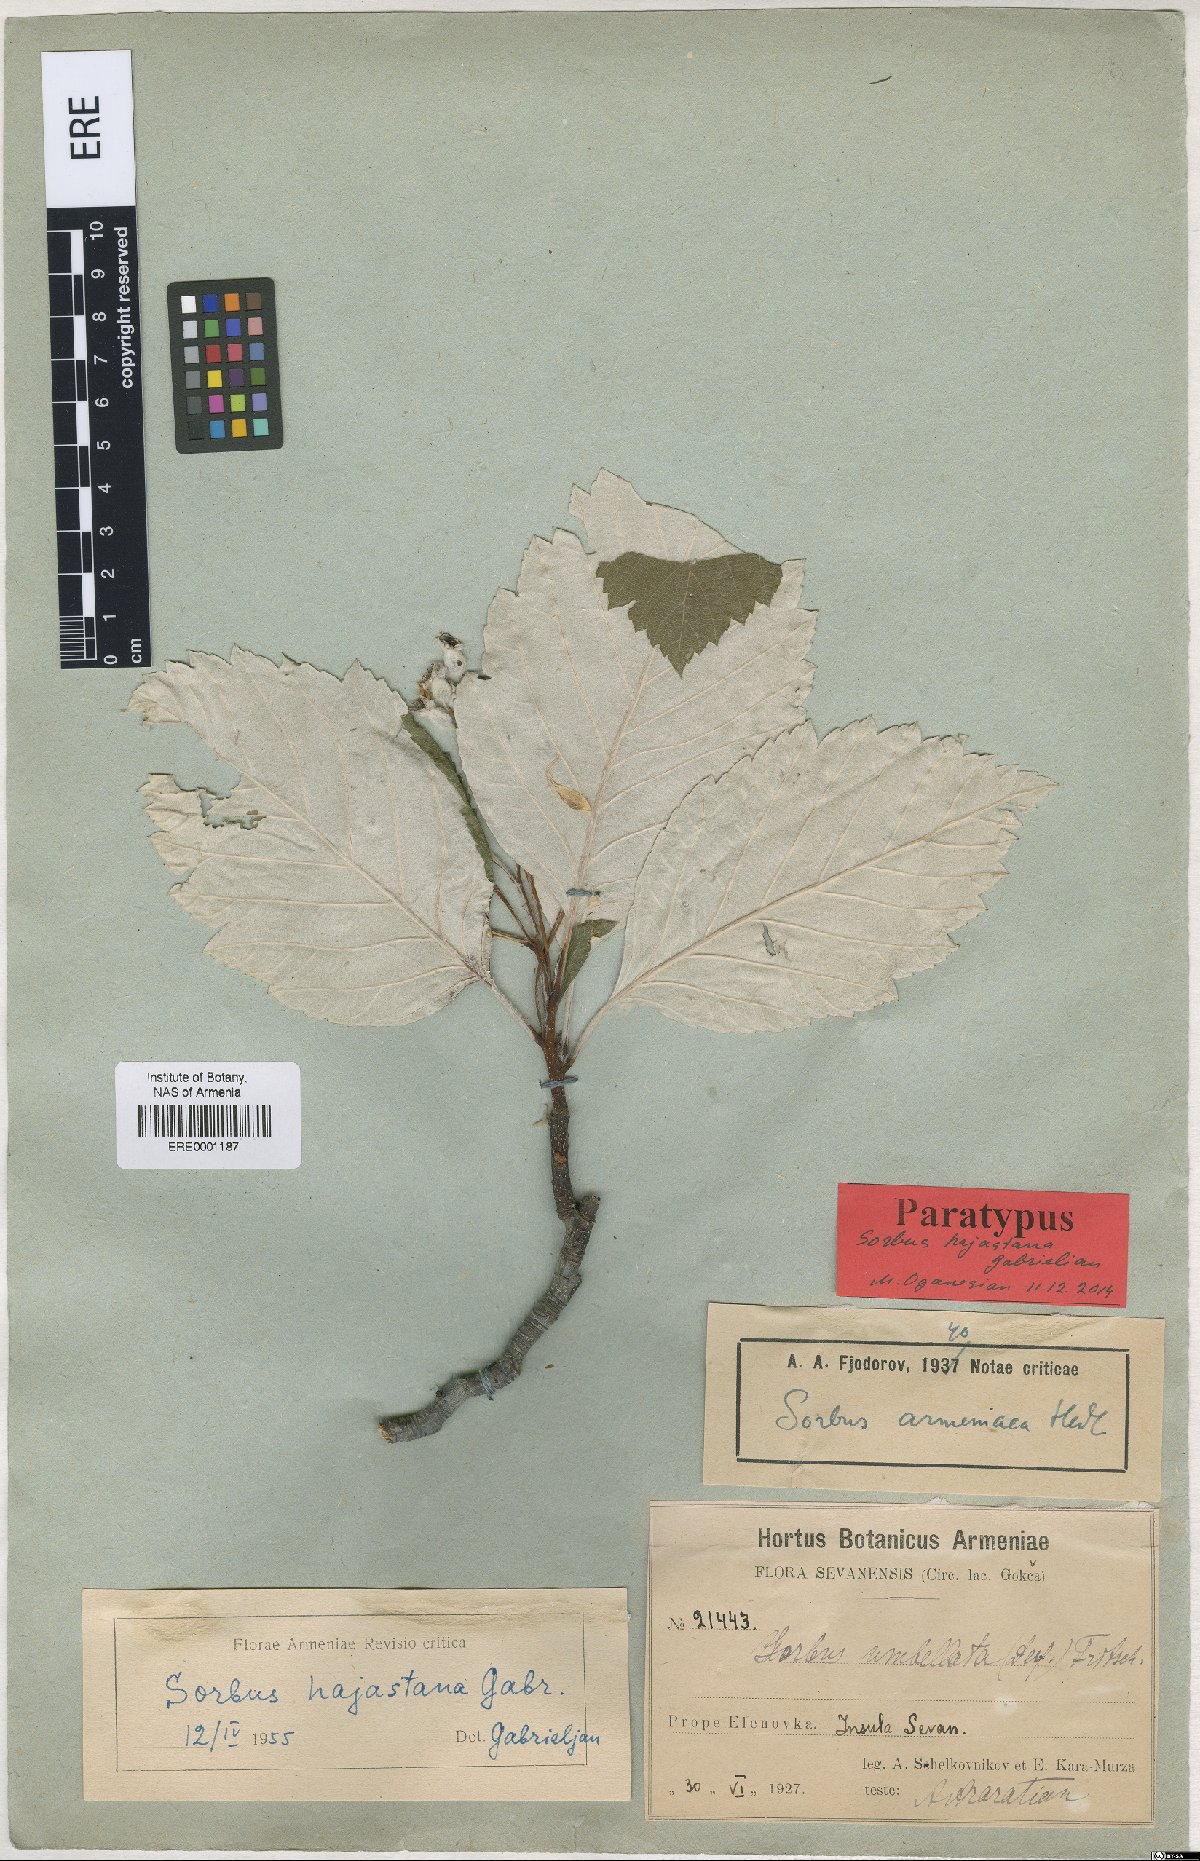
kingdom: Plantae
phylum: Tracheophyta
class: Magnoliopsida
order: Rosales
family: Rosaceae
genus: Sorbus
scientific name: Sorbus hajastana
